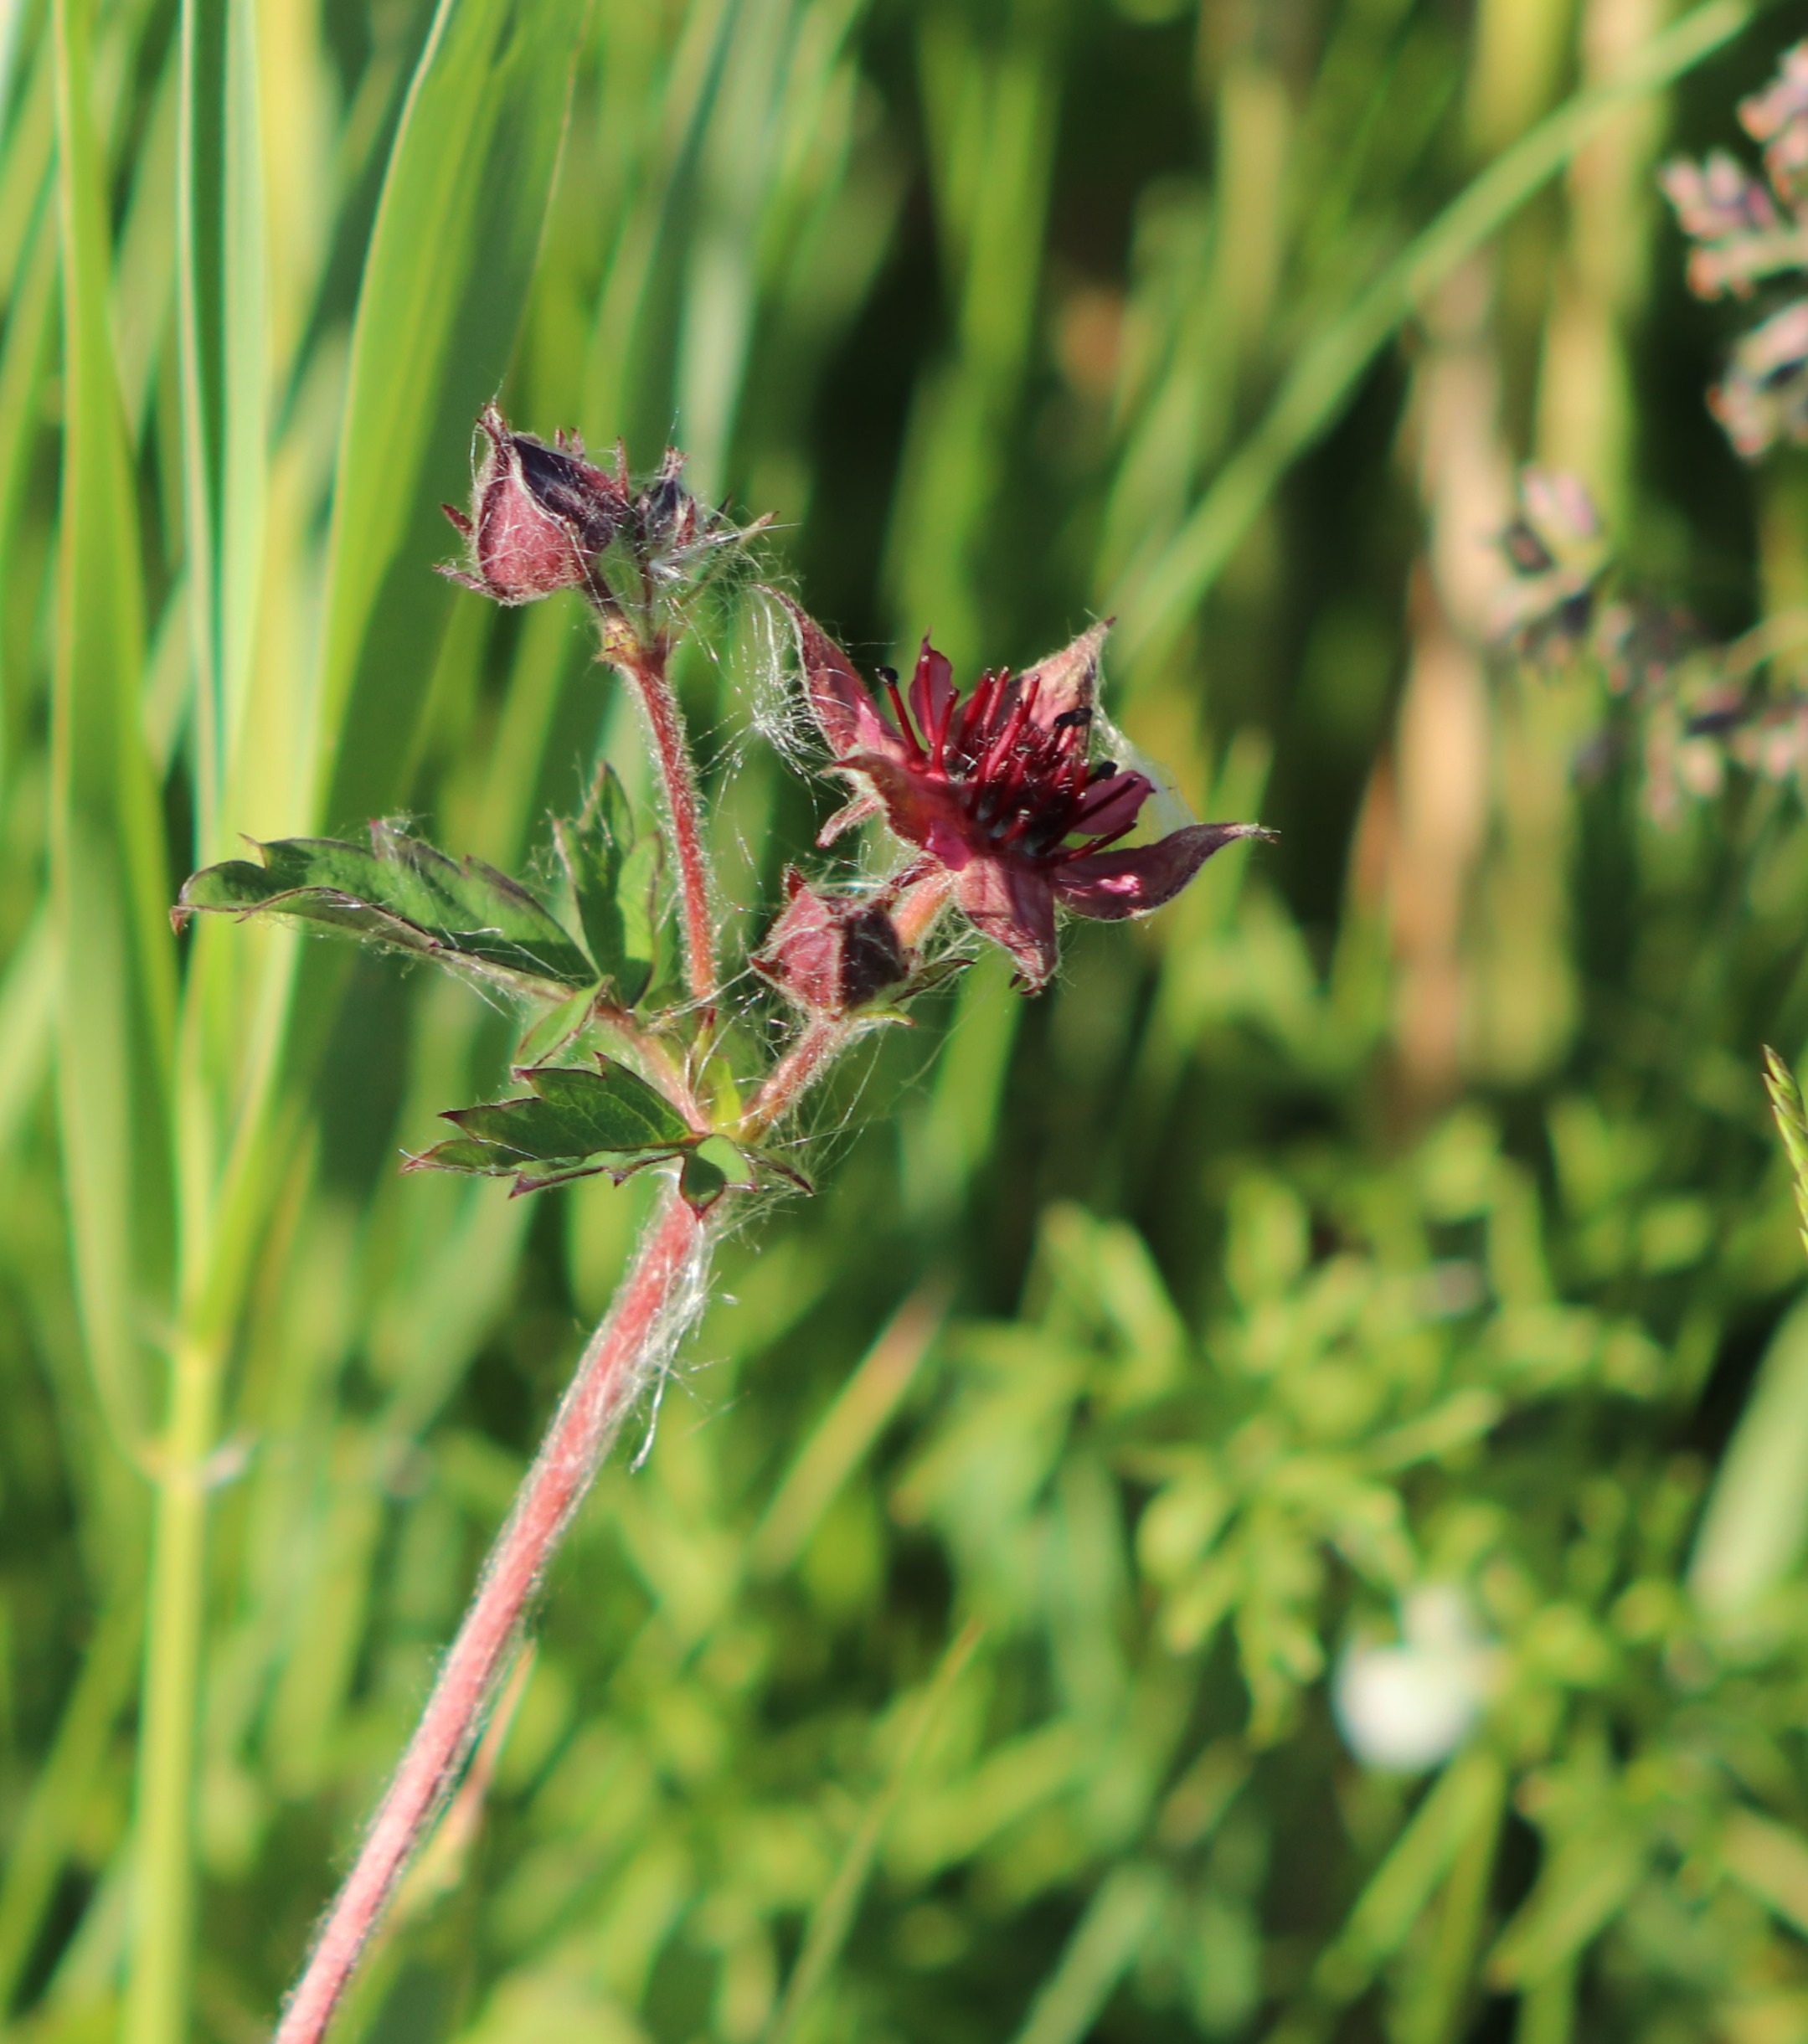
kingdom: Plantae
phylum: Tracheophyta
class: Magnoliopsida
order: Rosales
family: Rosaceae
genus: Comarum
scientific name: Comarum palustre
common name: Kragefod
